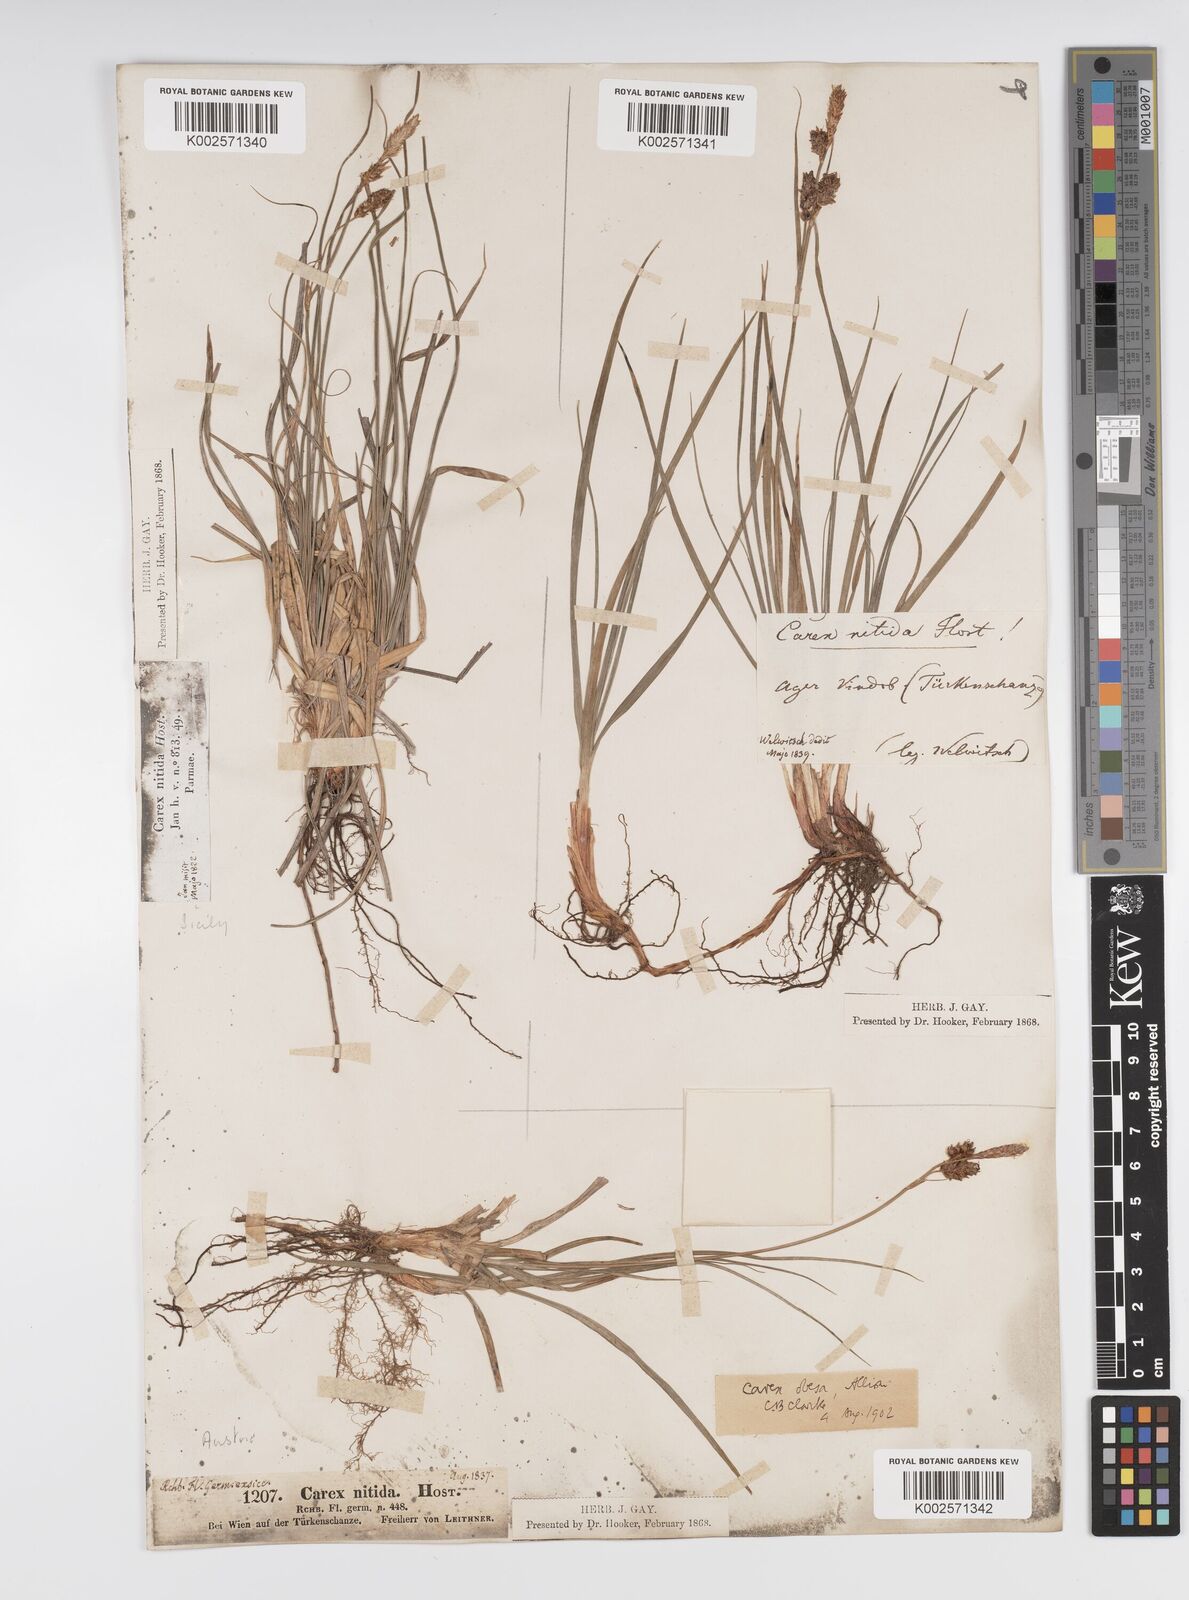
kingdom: Plantae
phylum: Tracheophyta
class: Liliopsida
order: Poales
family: Cyperaceae
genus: Carex
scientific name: Carex liparocarpos
